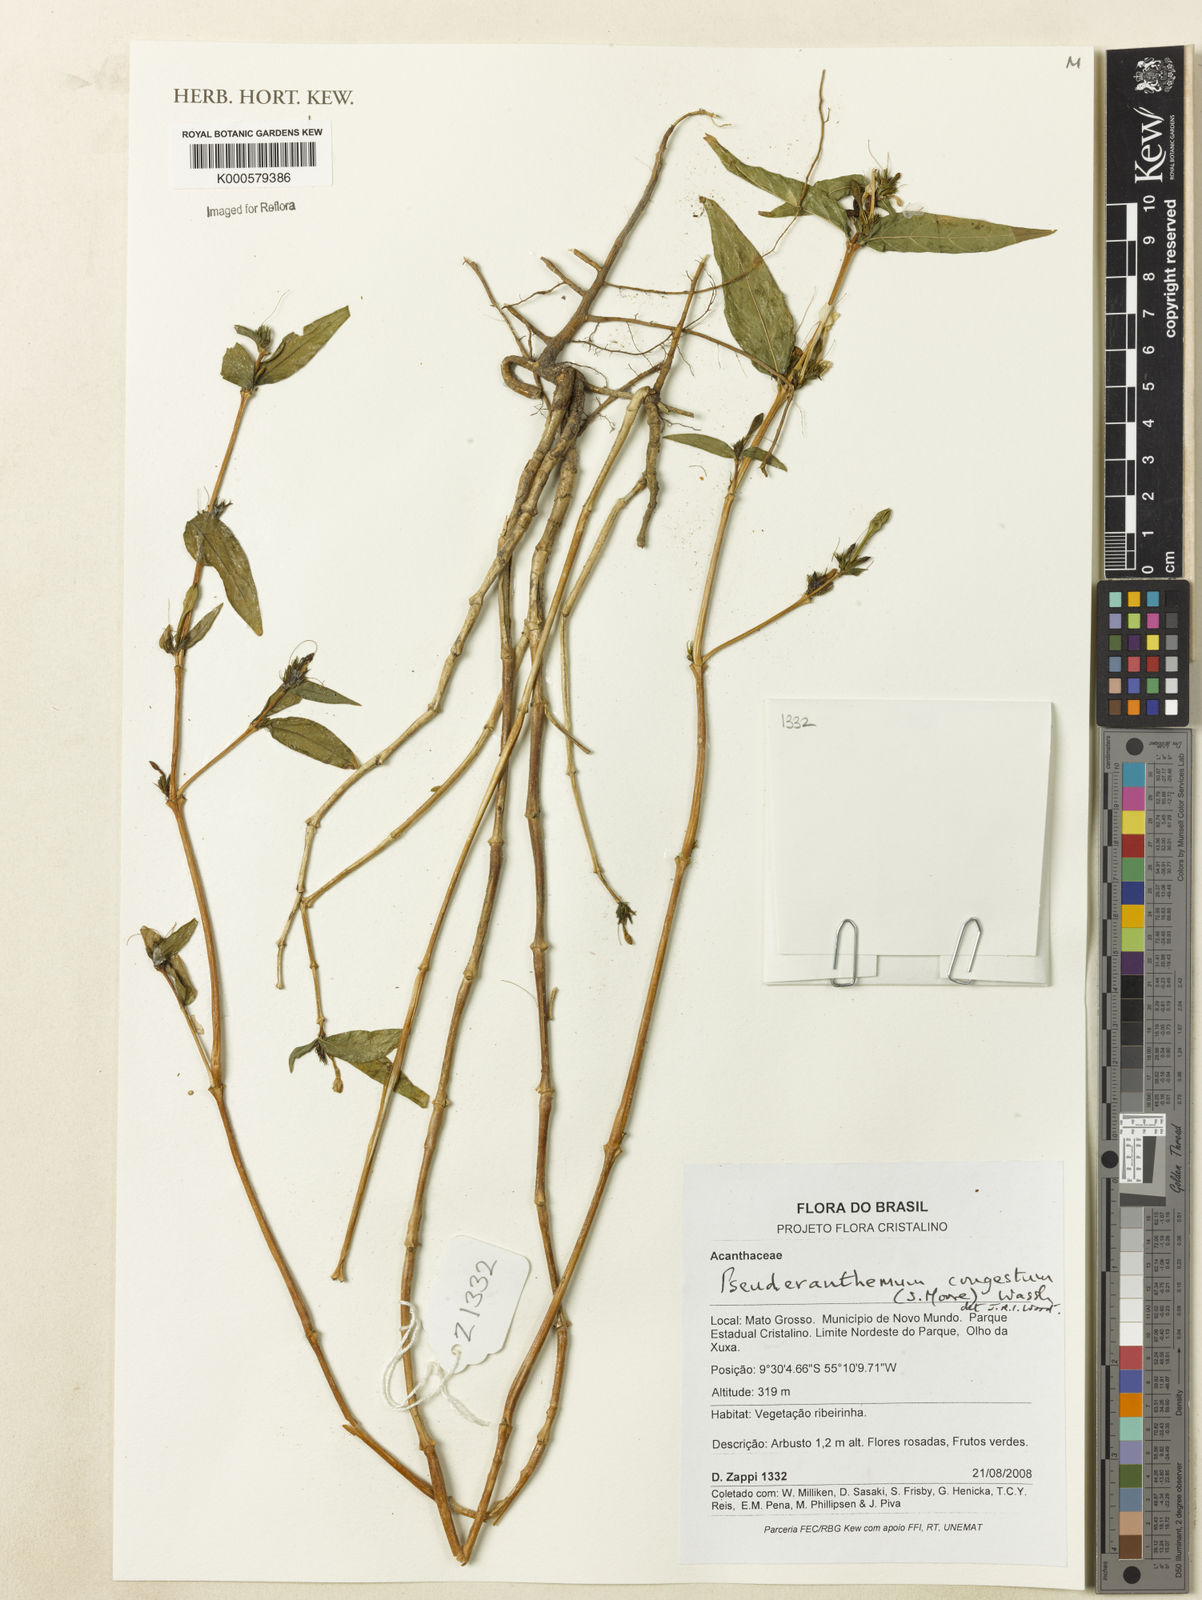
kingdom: Plantae
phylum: Tracheophyta
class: Magnoliopsida
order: Lamiales
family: Acanthaceae
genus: Pseuderanthemum
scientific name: Pseuderanthemum
